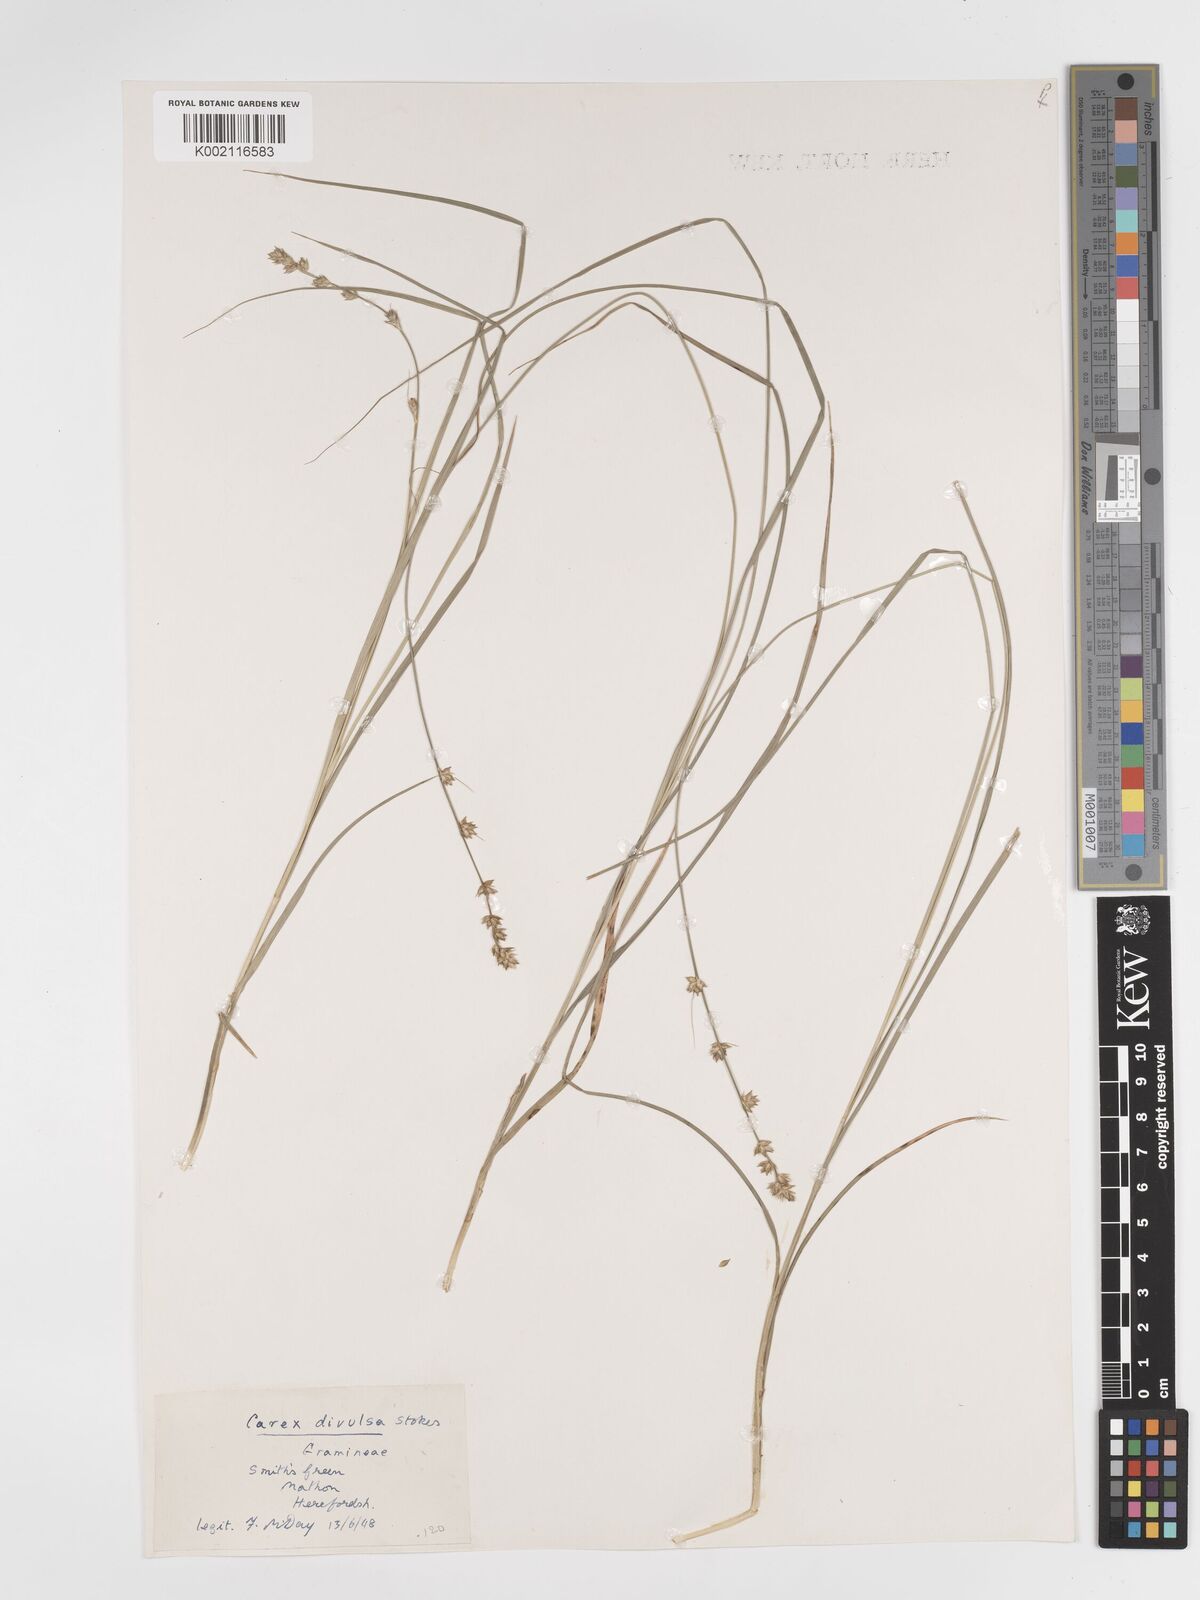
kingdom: Plantae
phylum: Tracheophyta
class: Liliopsida
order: Poales
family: Cyperaceae
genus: Carex
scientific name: Carex divulsa
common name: Grassland sedge
